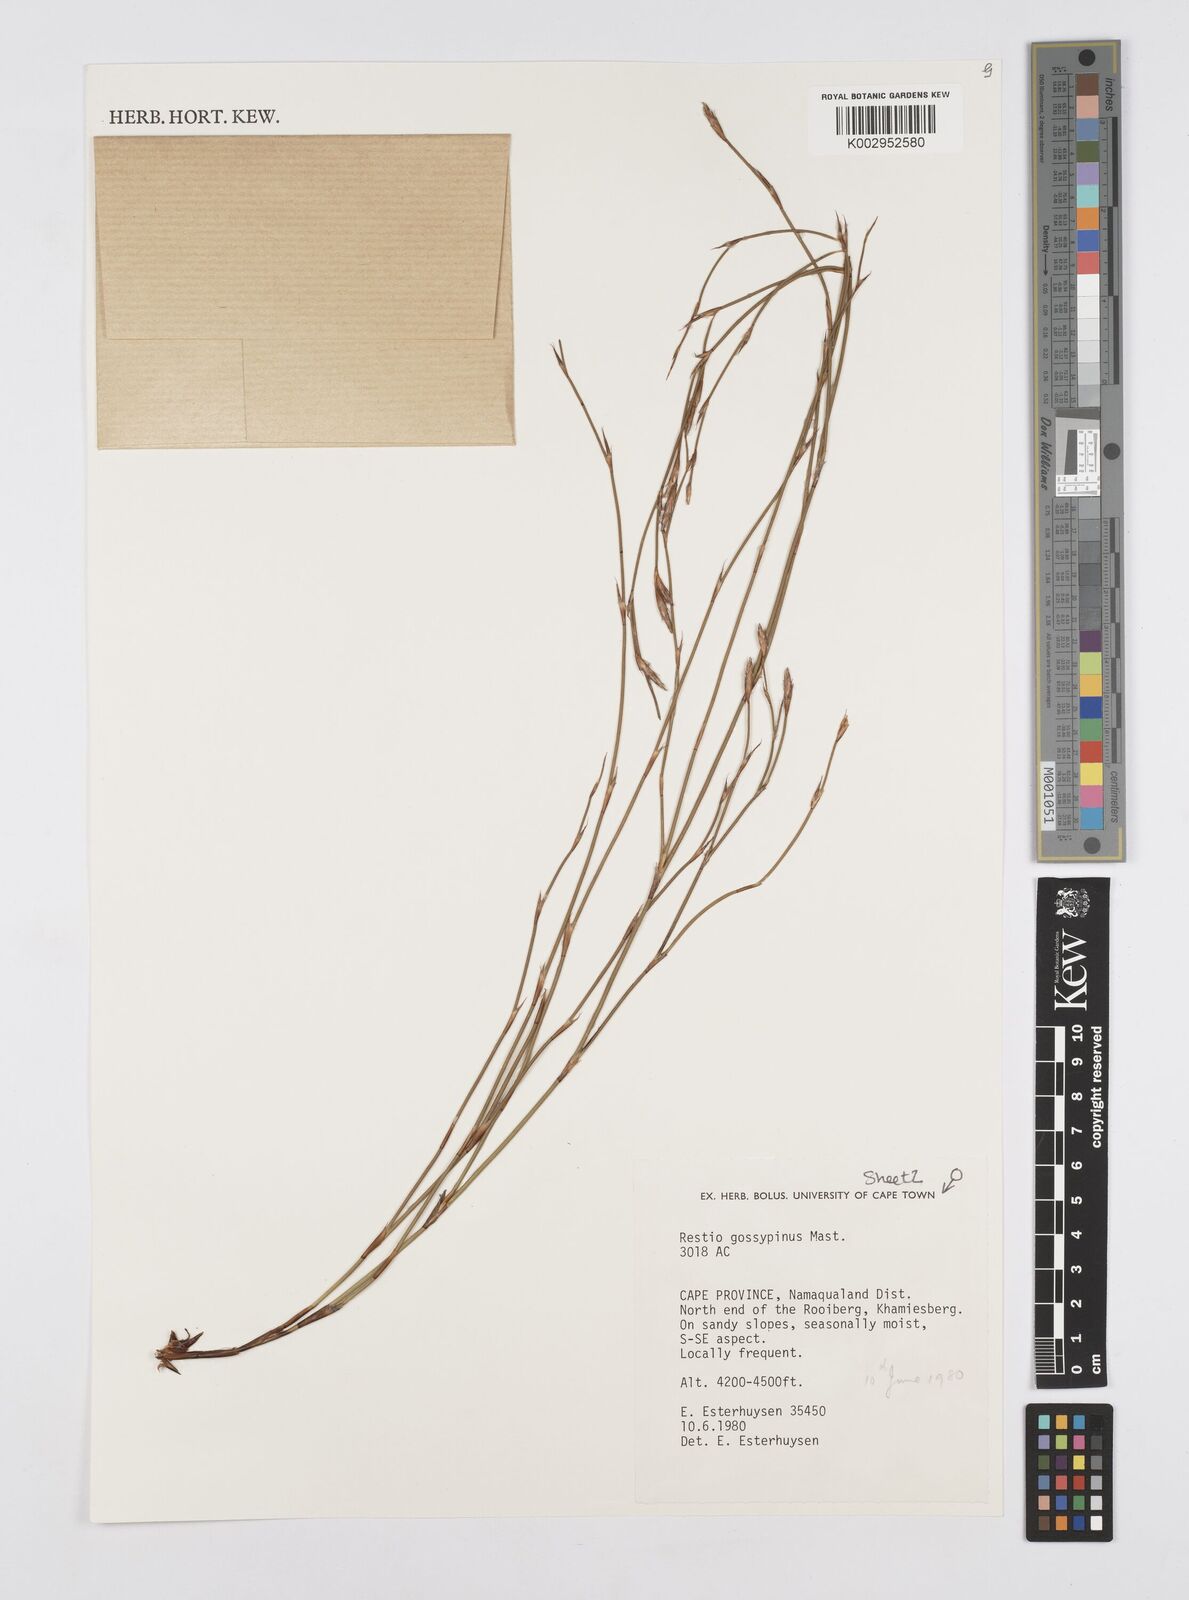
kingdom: Plantae
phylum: Tracheophyta
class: Liliopsida
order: Poales
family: Restionaceae
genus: Restio
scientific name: Restio gossypinus
